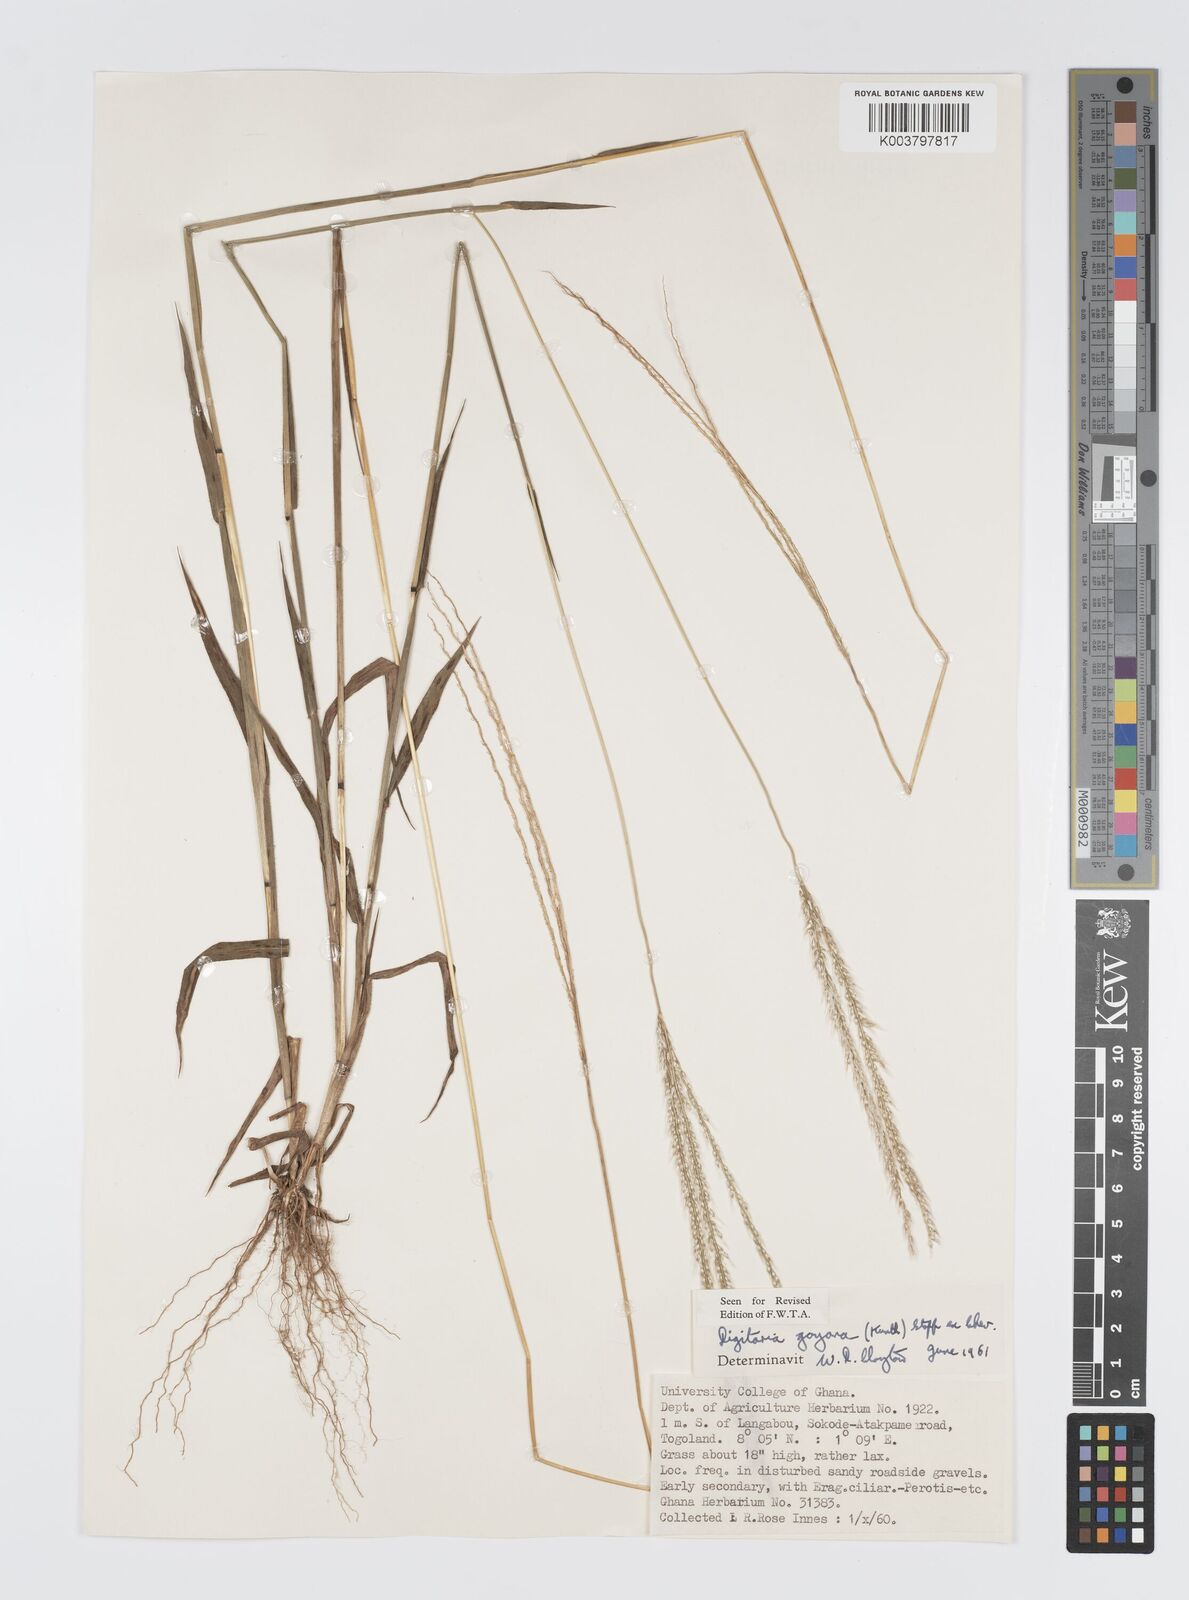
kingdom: Plantae
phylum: Tracheophyta
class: Liliopsida
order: Poales
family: Poaceae
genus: Digitaria
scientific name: Digitaria gayana
